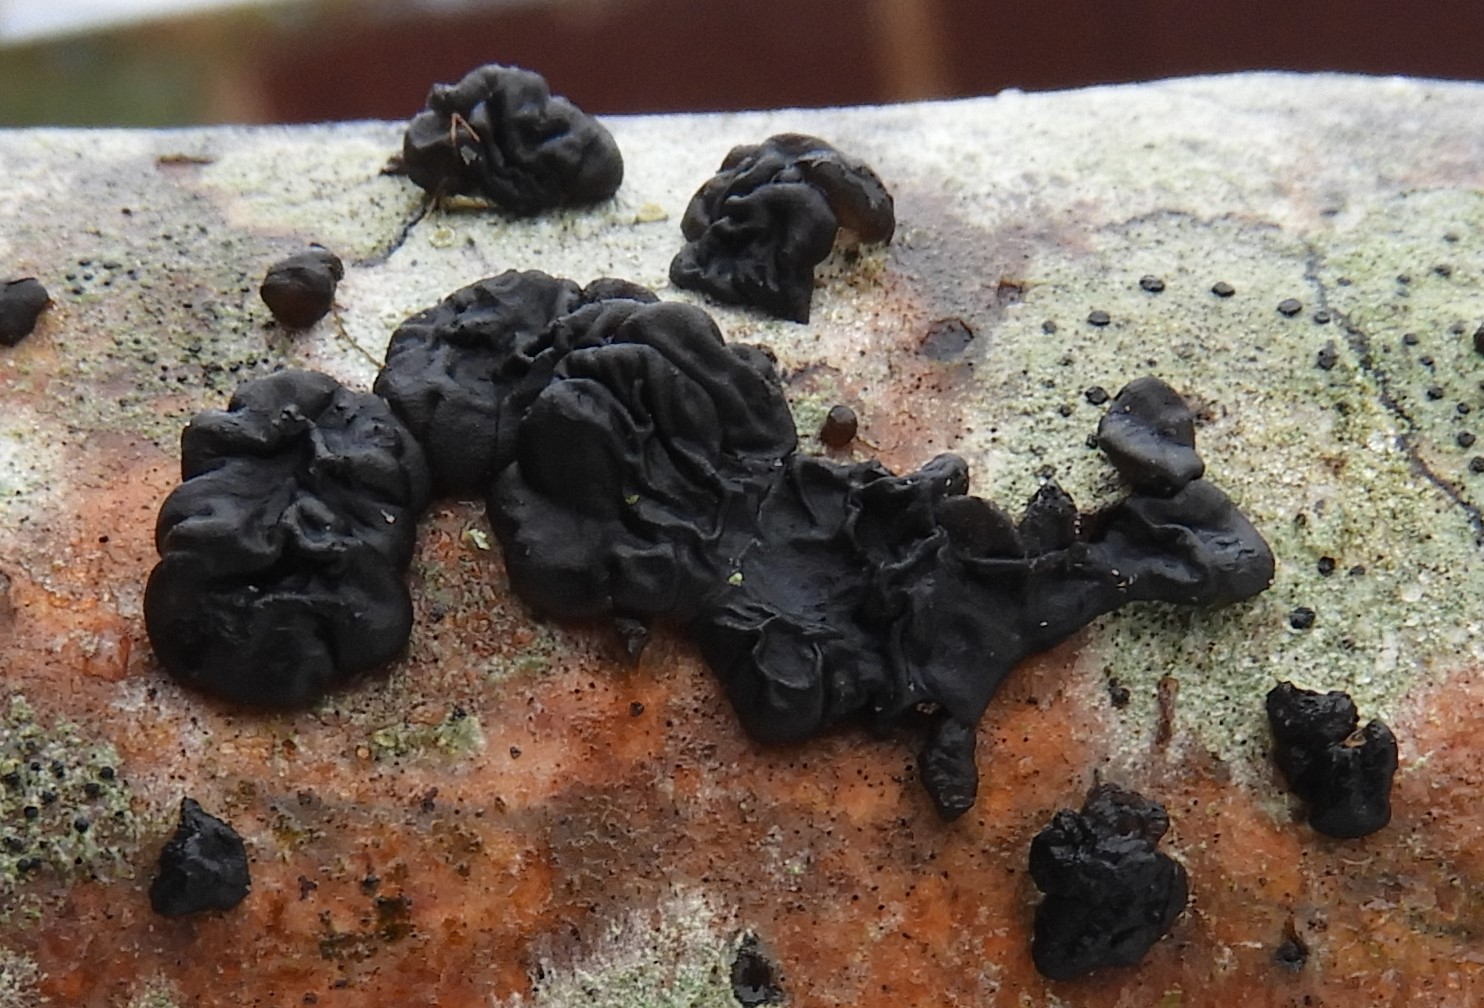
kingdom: Fungi
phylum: Basidiomycota
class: Agaricomycetes
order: Auriculariales
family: Auriculariaceae
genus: Exidia
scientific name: Exidia glandulosa
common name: ege-bævretop
